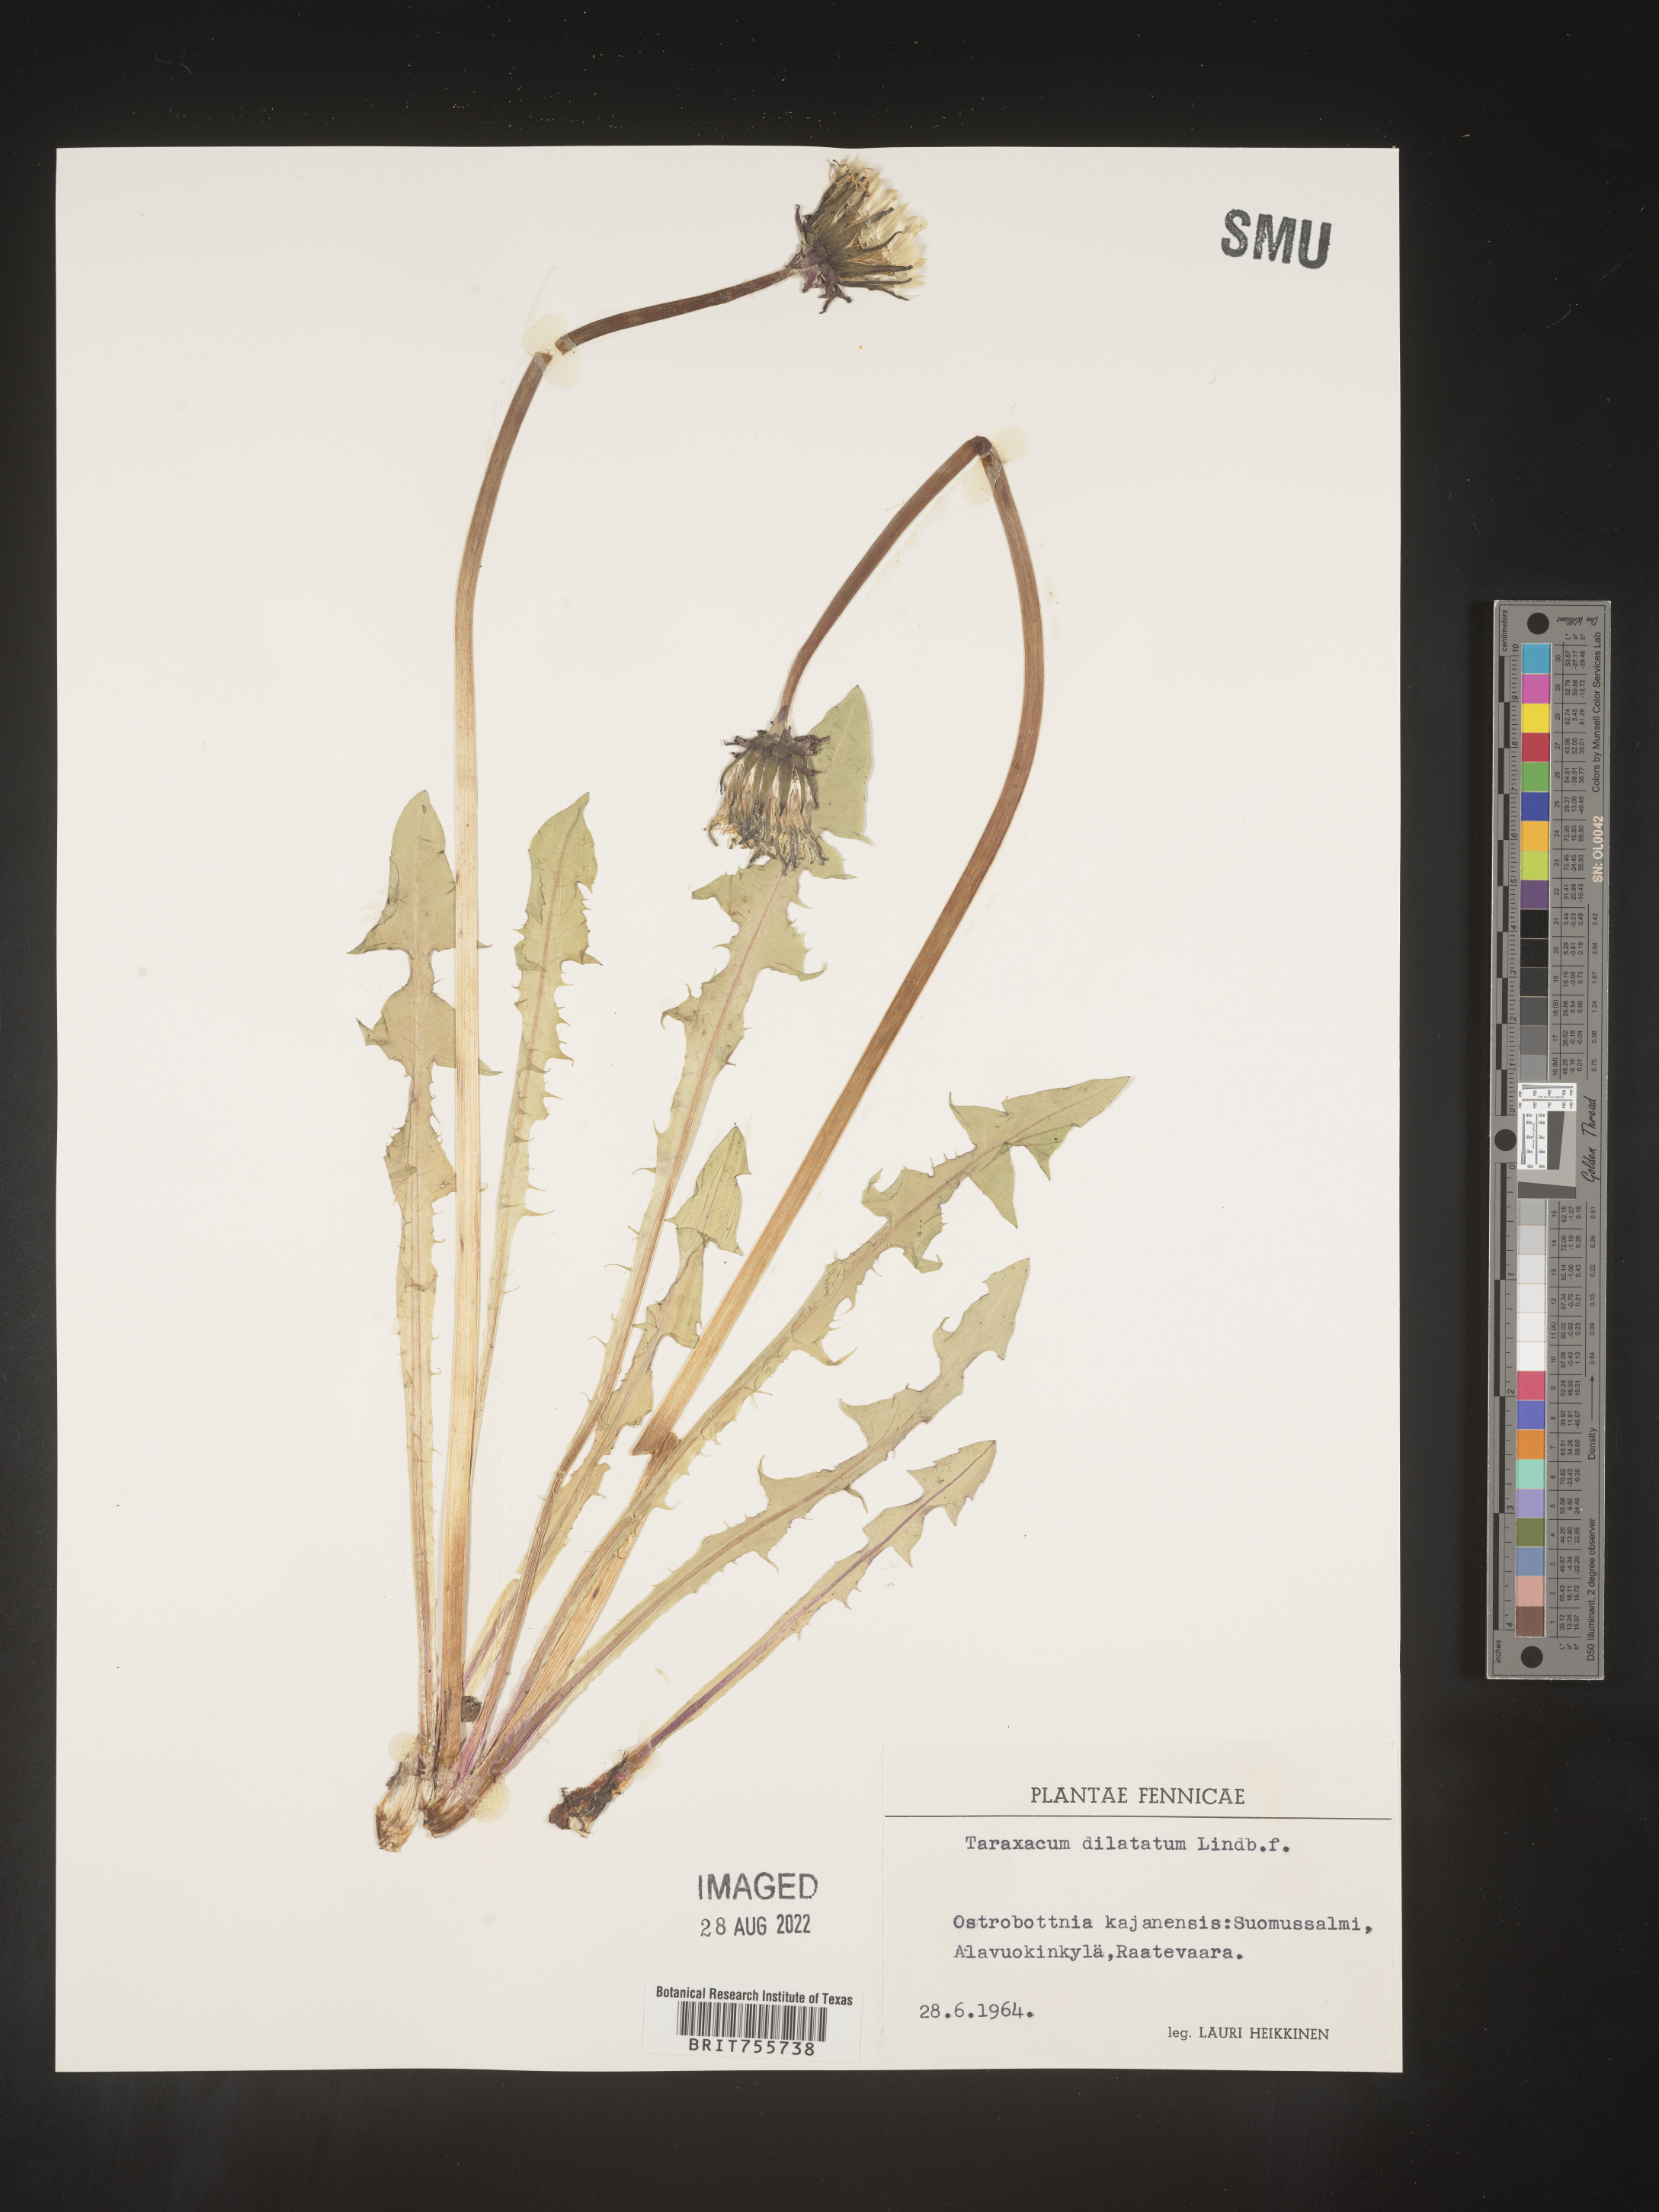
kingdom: Plantae
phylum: Tracheophyta
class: Magnoliopsida
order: Asterales
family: Asteraceae
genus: Taraxacum
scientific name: Taraxacum
